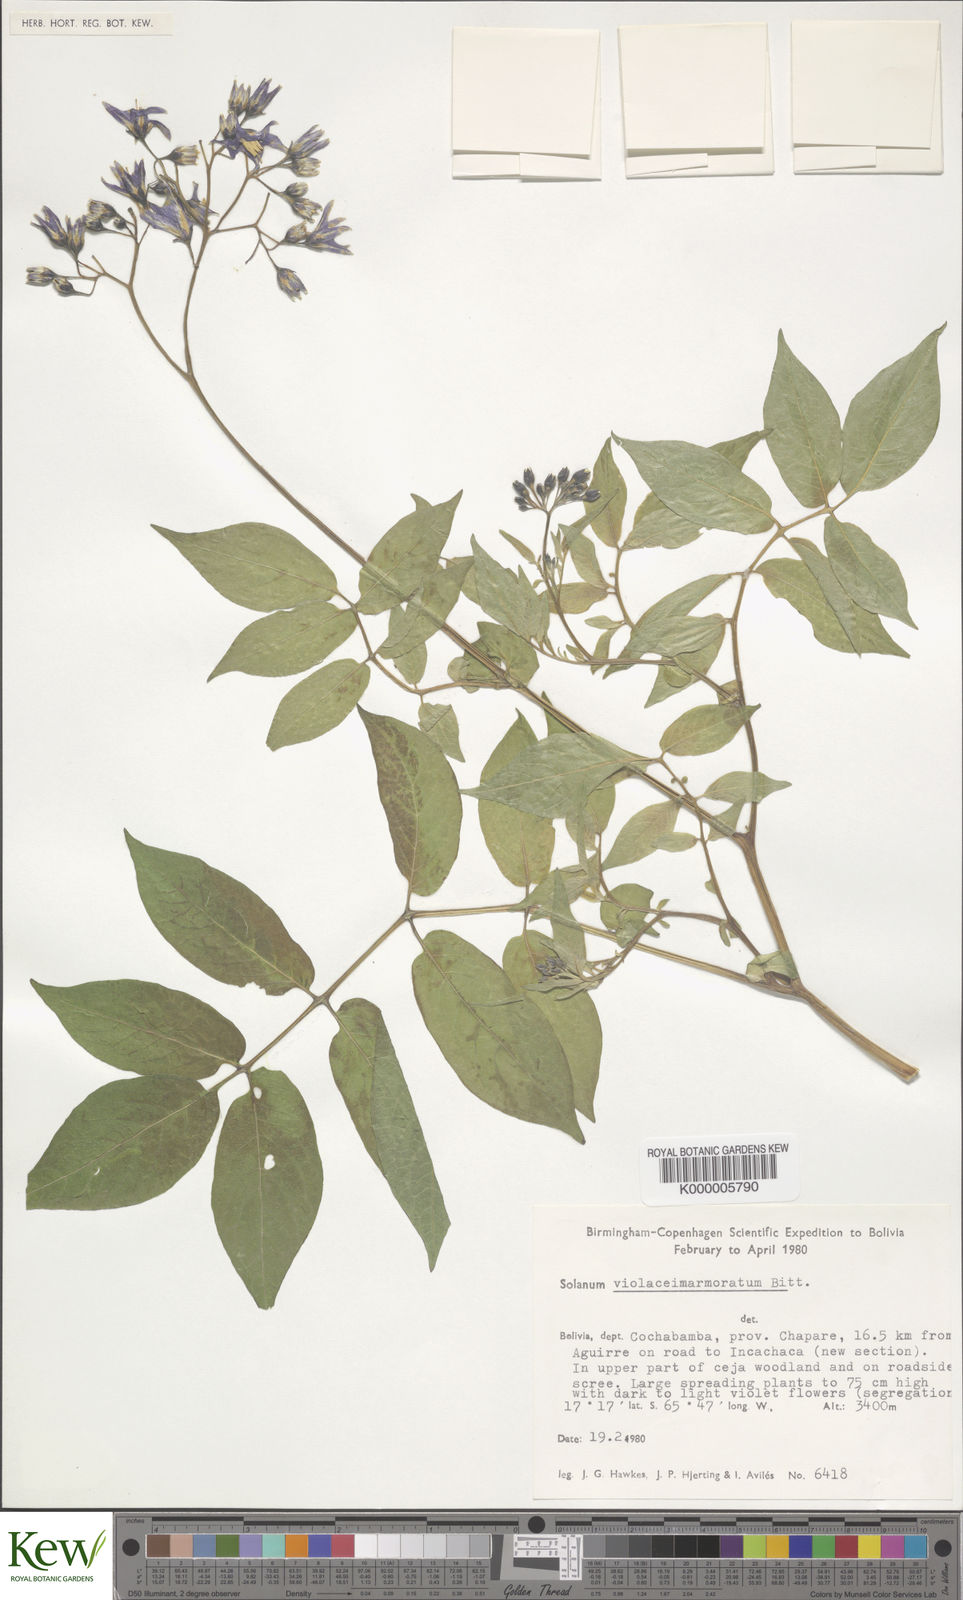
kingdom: Plantae
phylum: Tracheophyta
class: Magnoliopsida
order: Solanales
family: Solanaceae
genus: Solanum
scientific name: Solanum violaceimarmoratum
